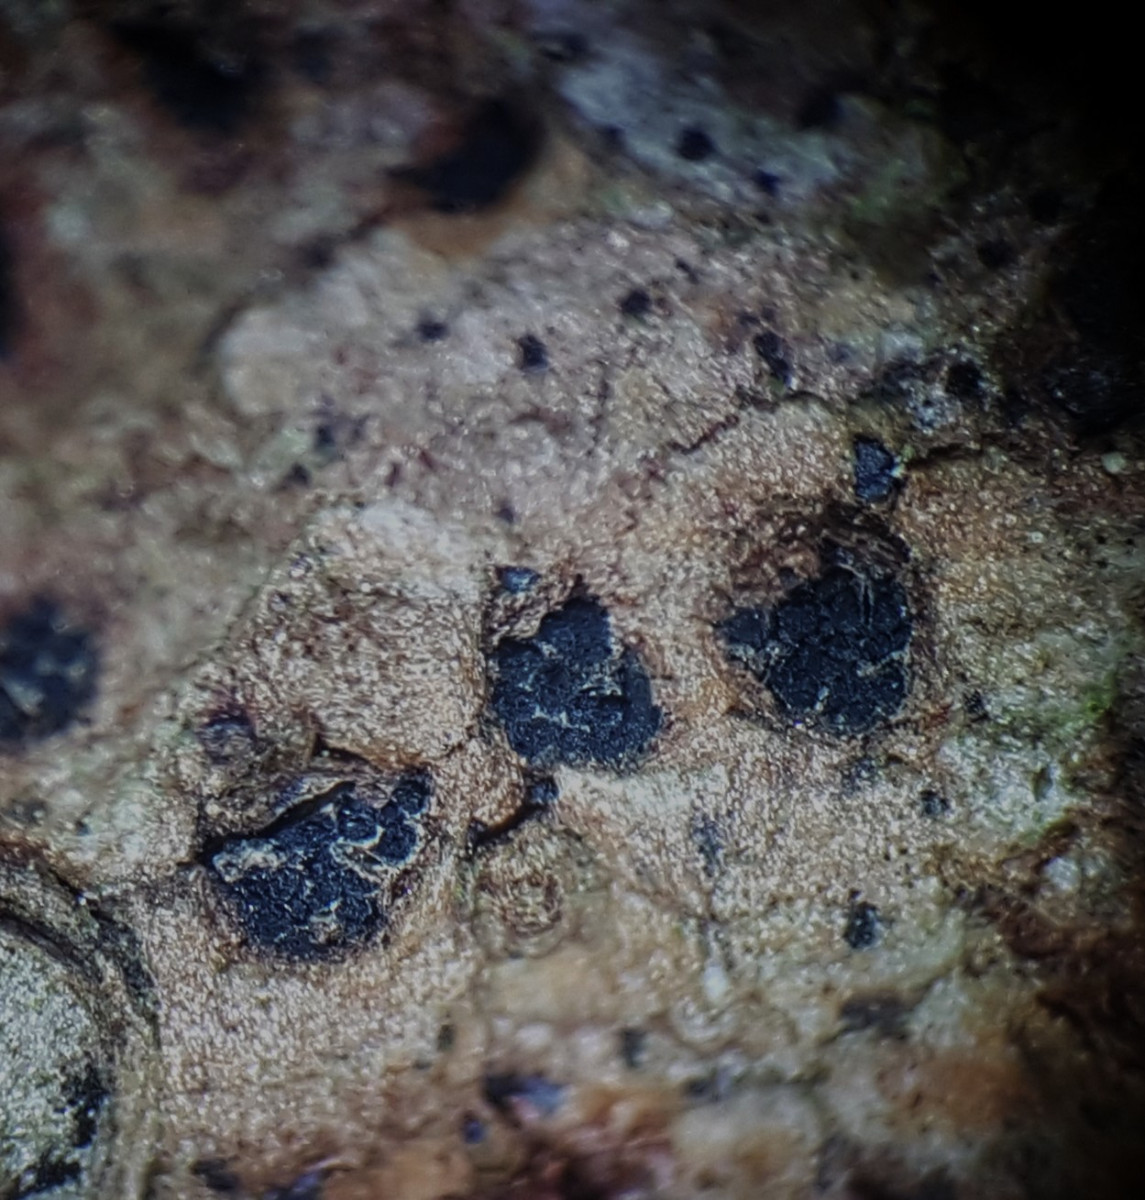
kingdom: Fungi
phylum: Ascomycota
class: Sordariomycetes
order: Diaporthales
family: Valsaceae
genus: Cytospora
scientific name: Cytospora pinastri
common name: ædelgran-kulknippe
